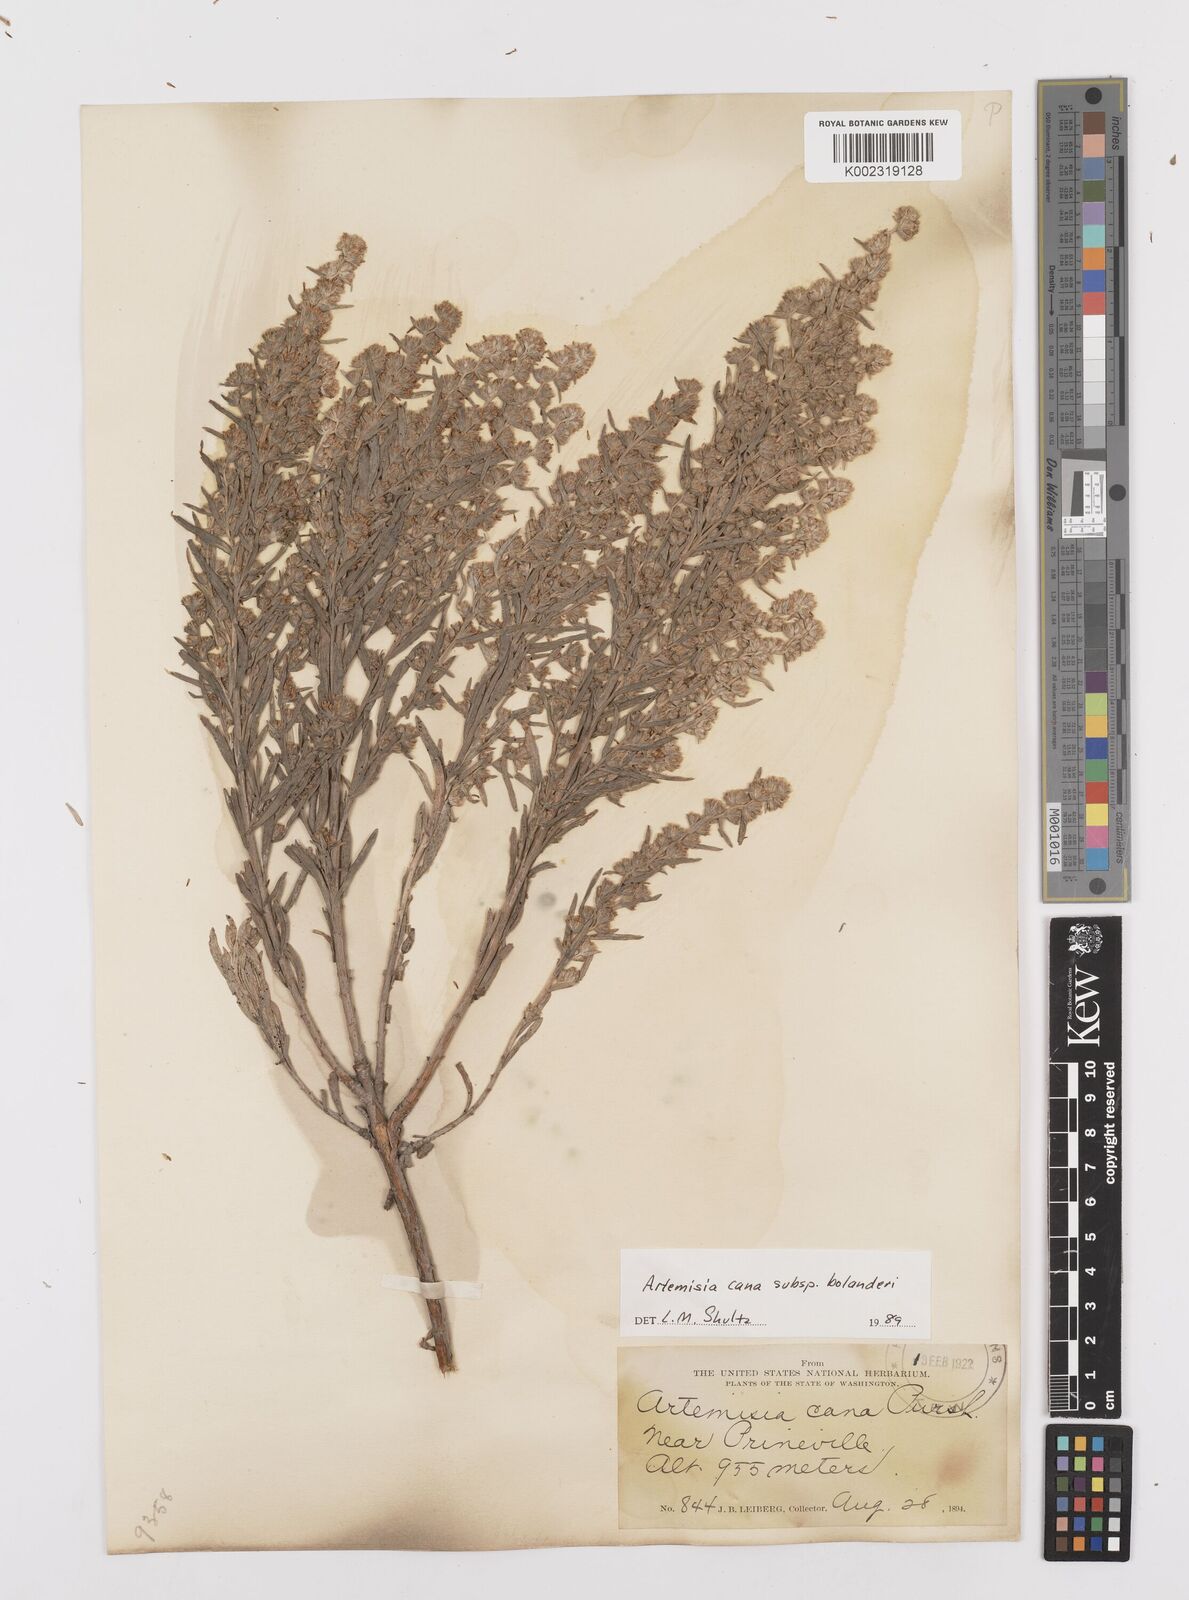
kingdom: Plantae
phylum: Tracheophyta
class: Magnoliopsida
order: Asterales
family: Asteraceae
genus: Artemisia
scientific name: Artemisia cana
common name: Silver sagebrush
